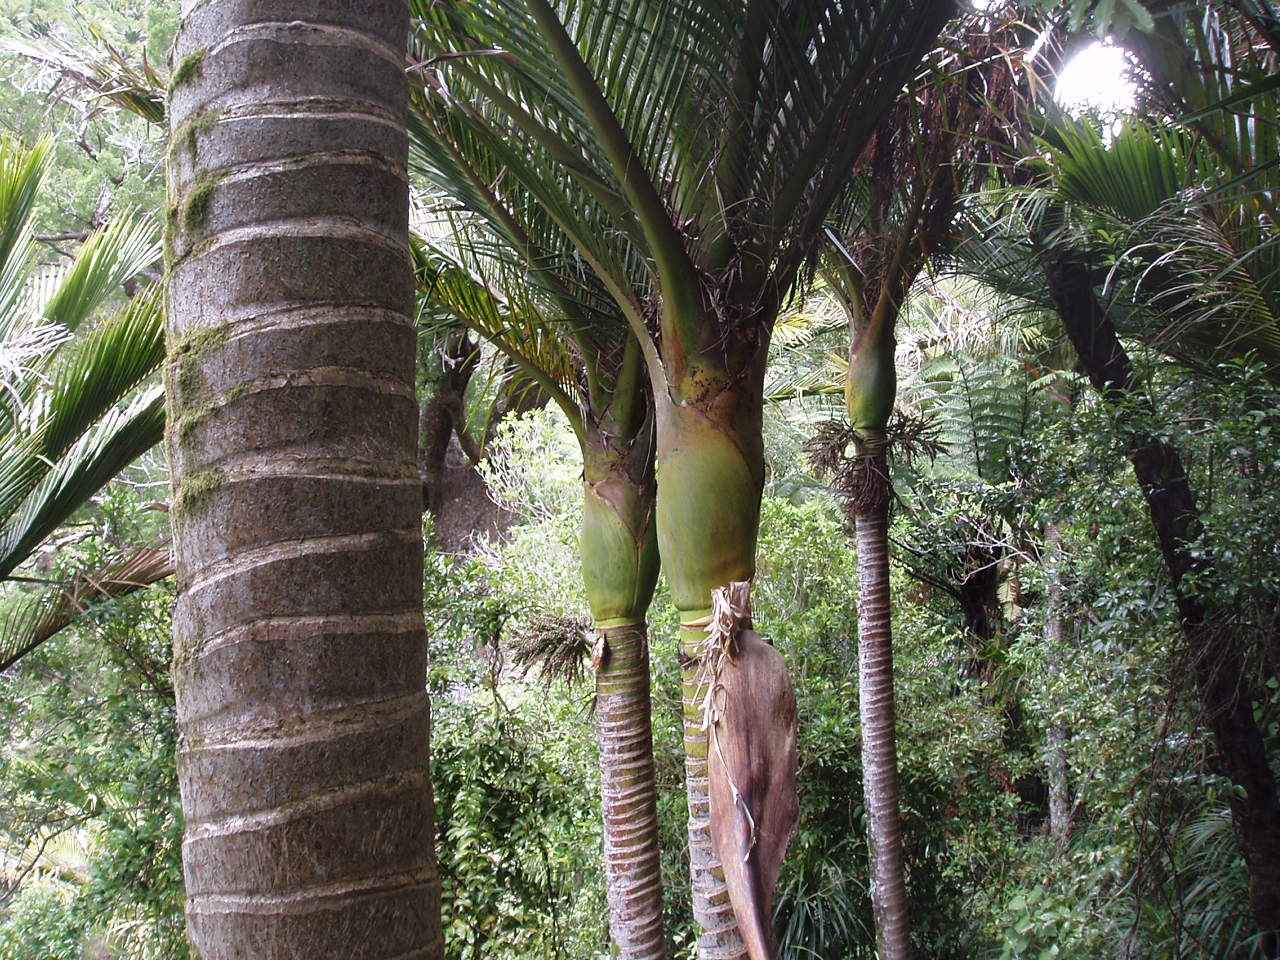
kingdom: Plantae
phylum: Tracheophyta
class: Liliopsida
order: Arecales
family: Arecaceae
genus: Rhopalostylis
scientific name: Rhopalostylis sapida
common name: Feather-duster palm
